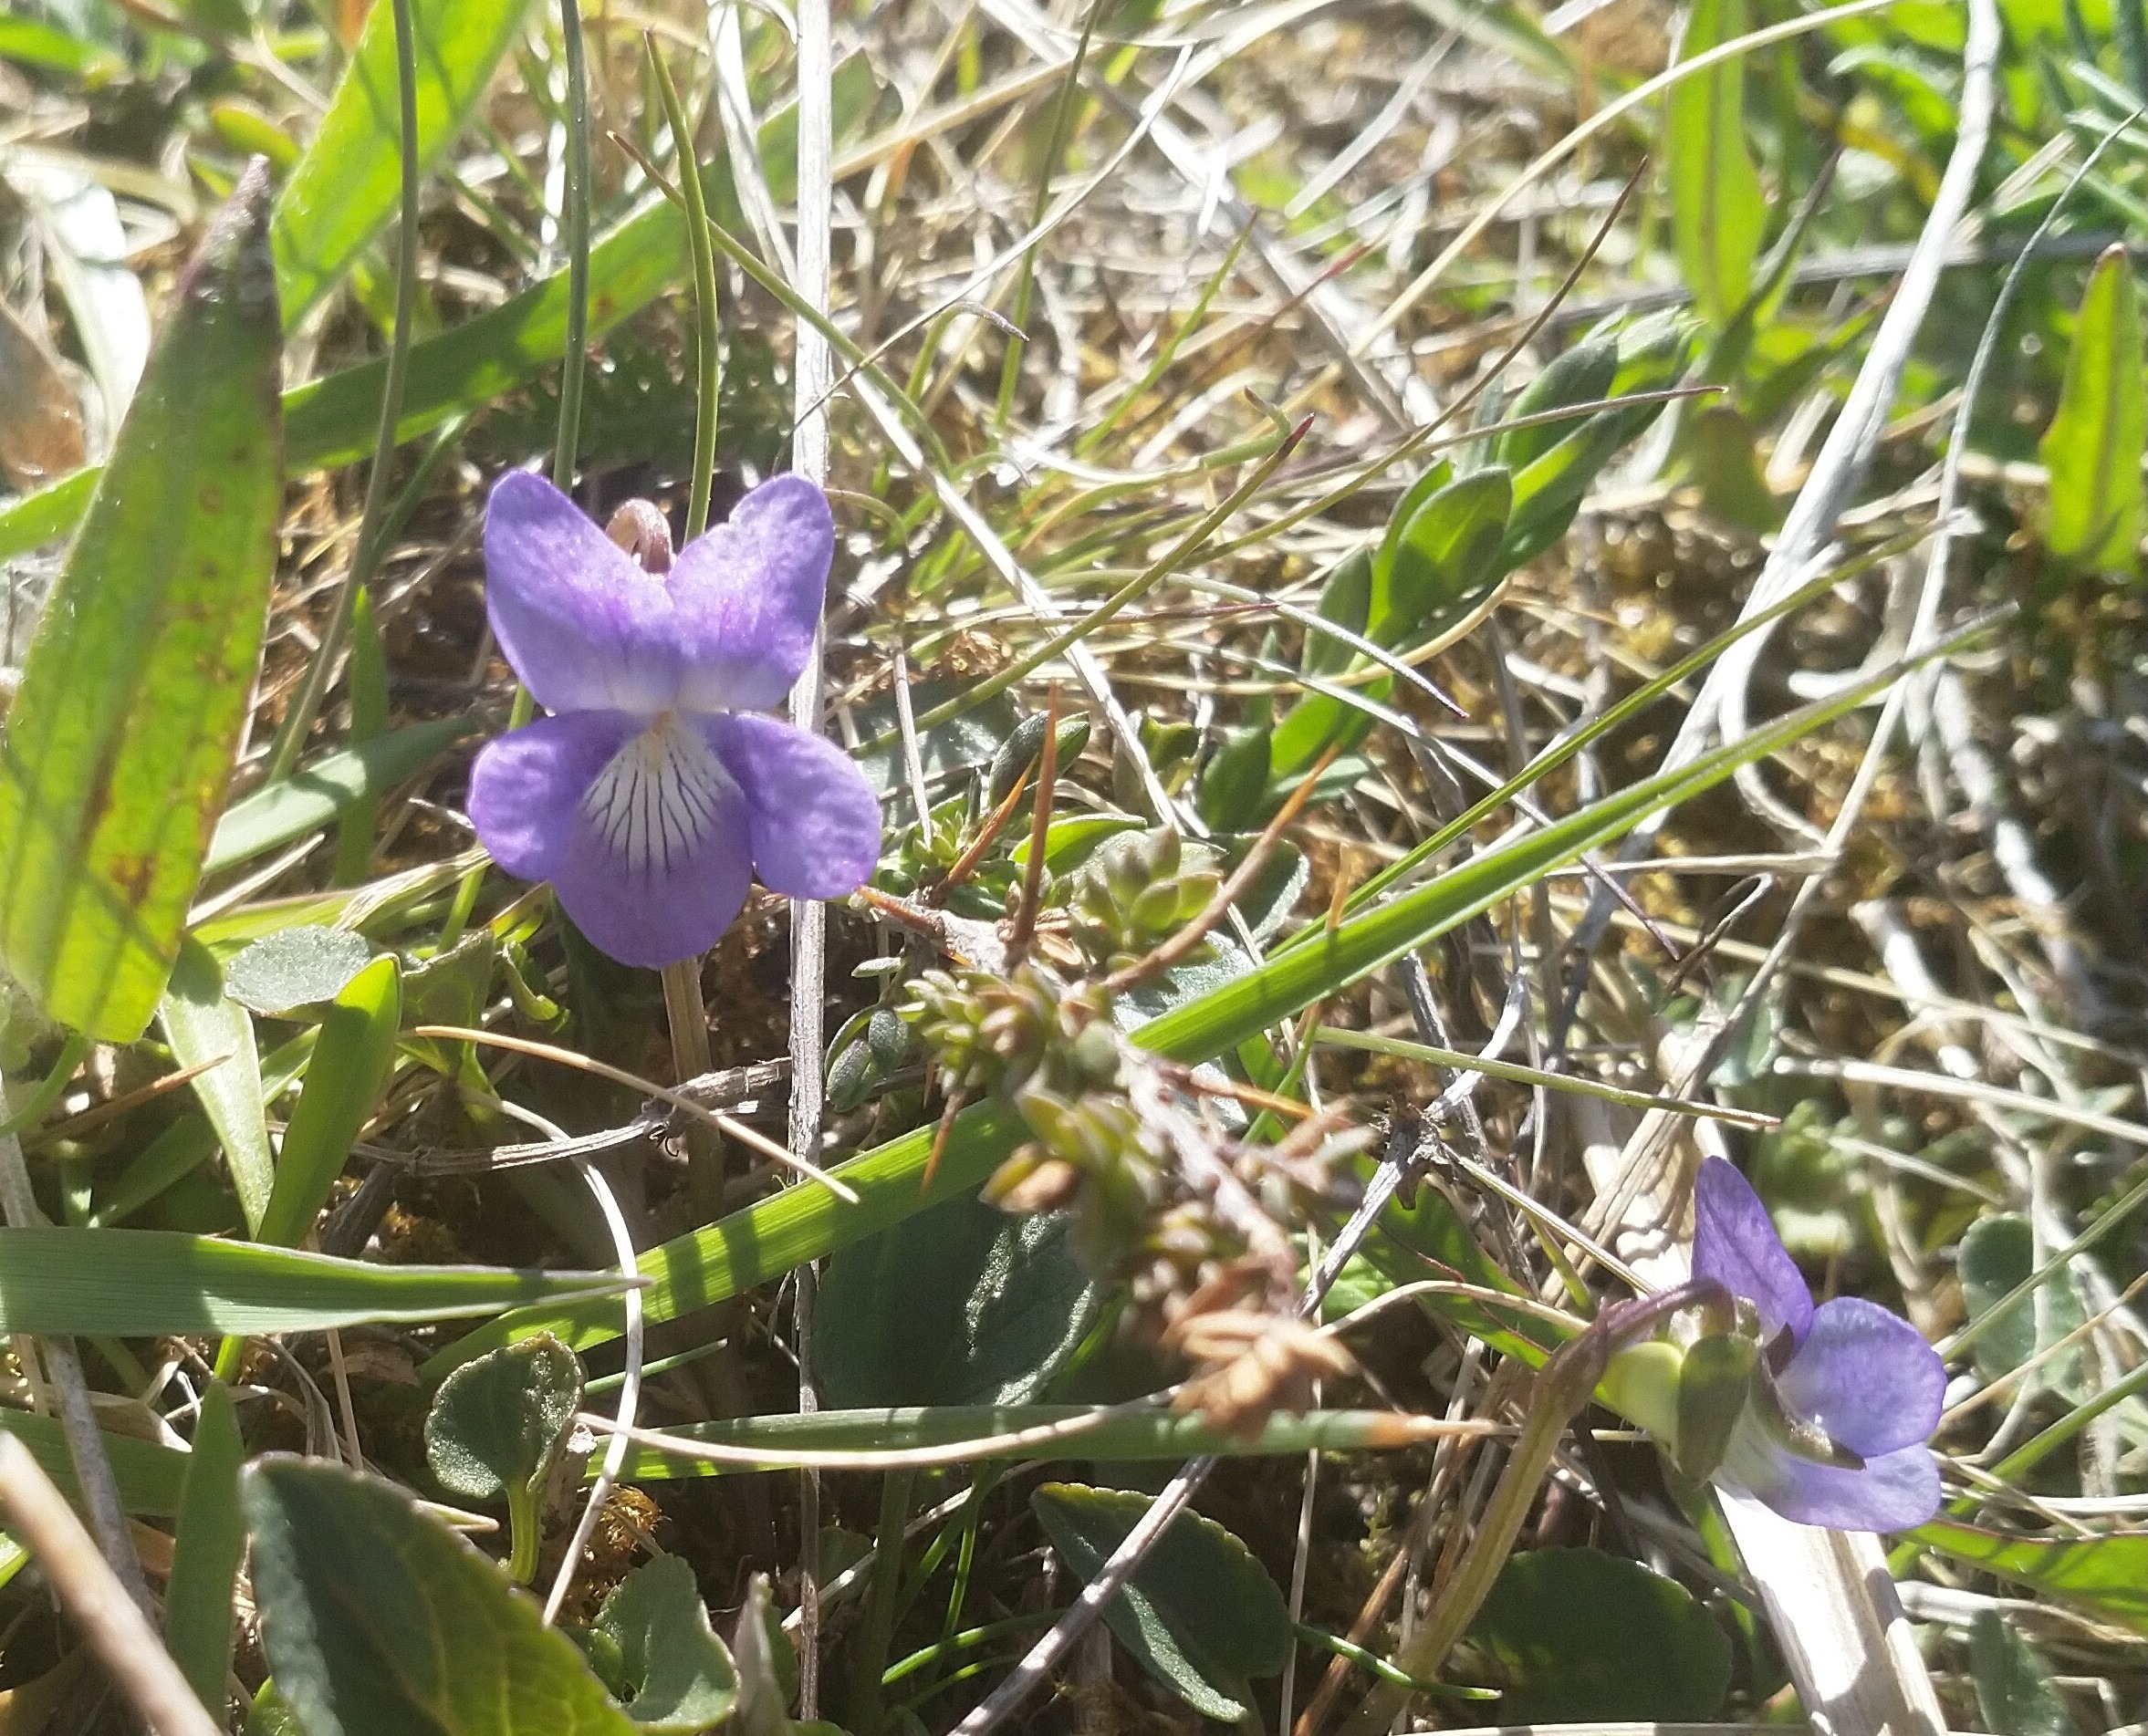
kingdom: Plantae
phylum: Tracheophyta
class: Magnoliopsida
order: Malpighiales
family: Violaceae
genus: Viola
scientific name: Viola canina
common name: Hunde-viol
